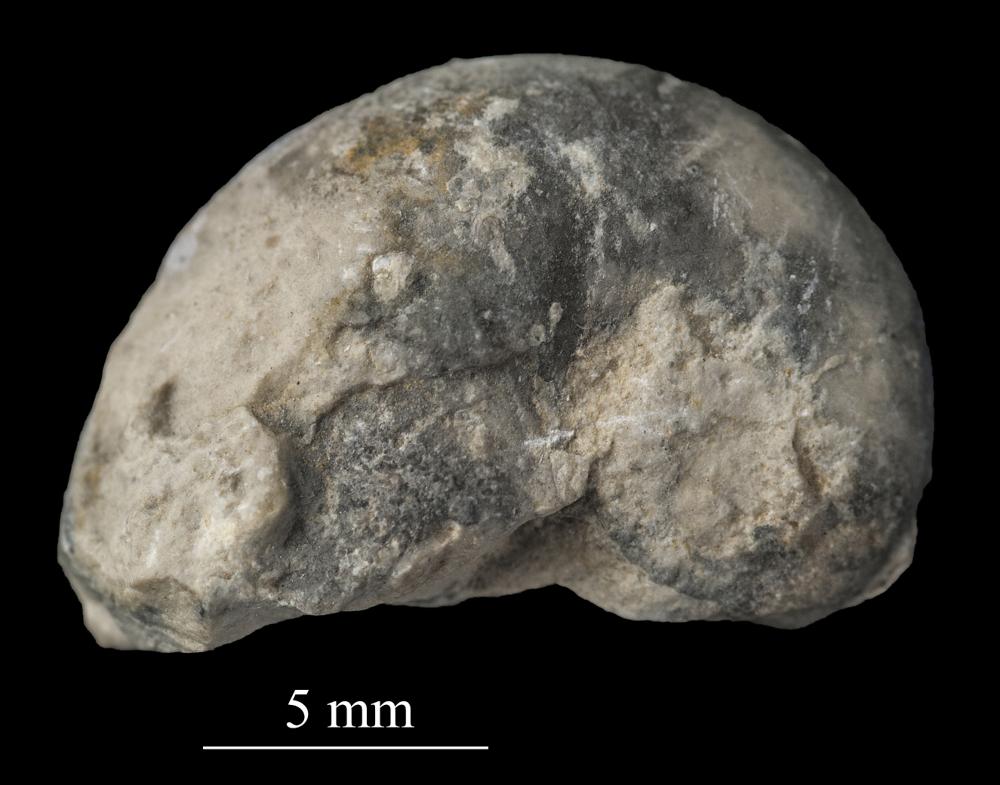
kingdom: Animalia
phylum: Mollusca
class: Gastropoda
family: Bellerophontidae
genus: Bellerophon
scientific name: Bellerophon
